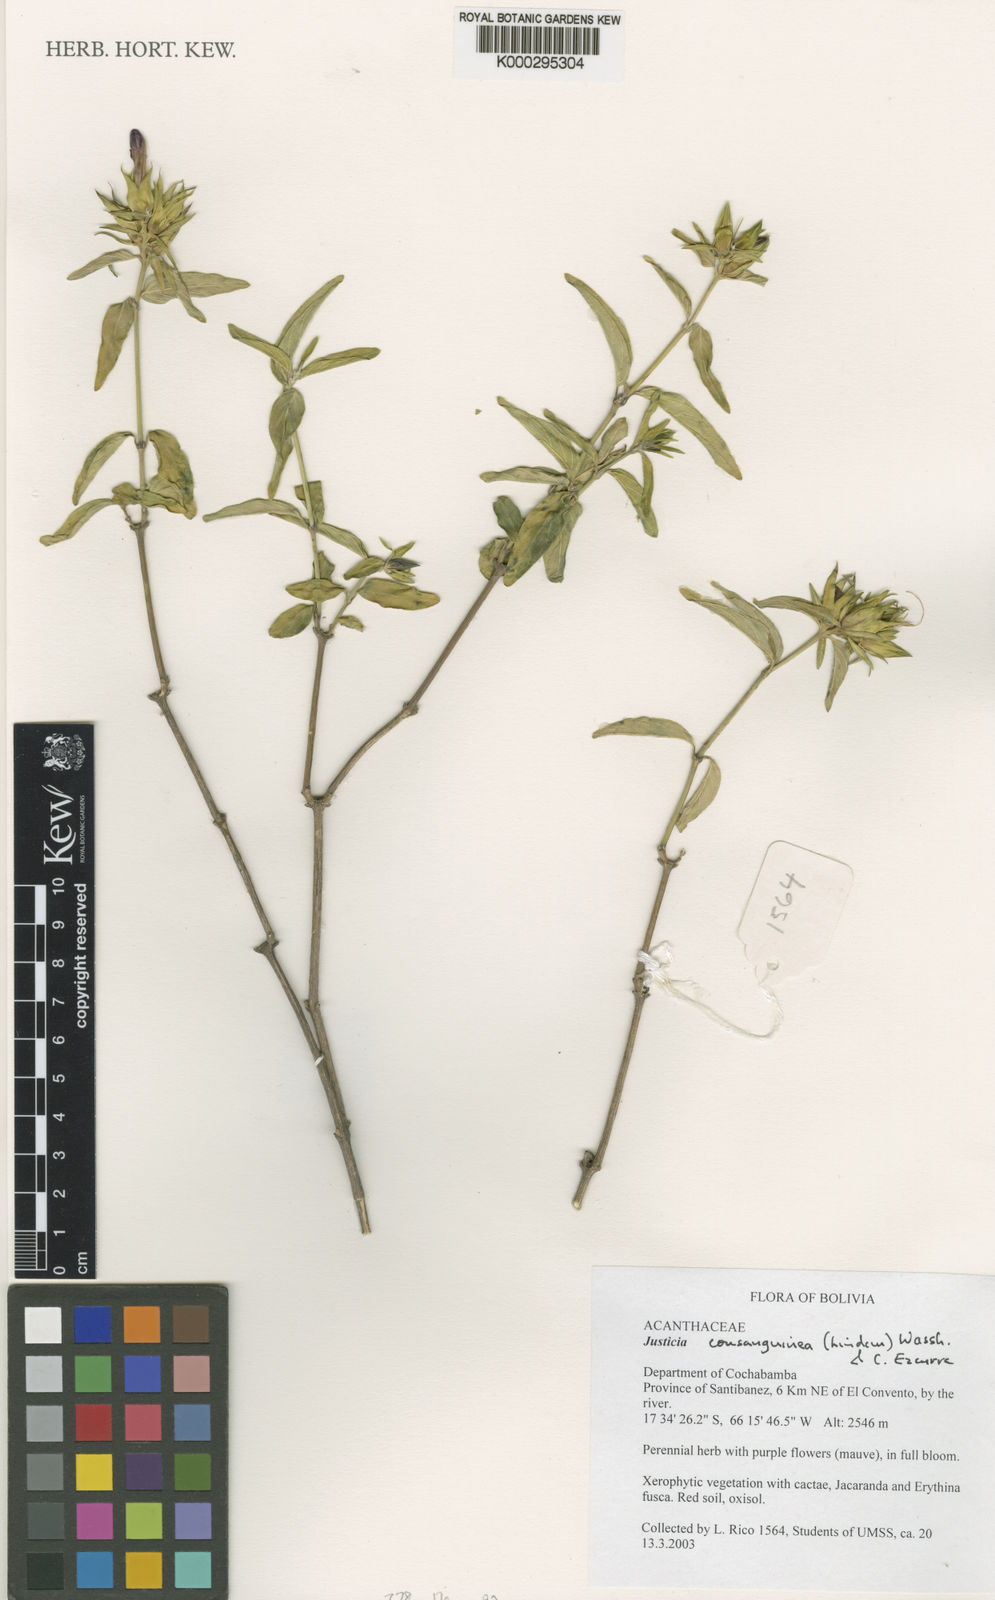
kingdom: Plantae
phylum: Tracheophyta
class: Magnoliopsida
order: Lamiales
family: Acanthaceae
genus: Justicia
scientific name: Justicia consanguinea
